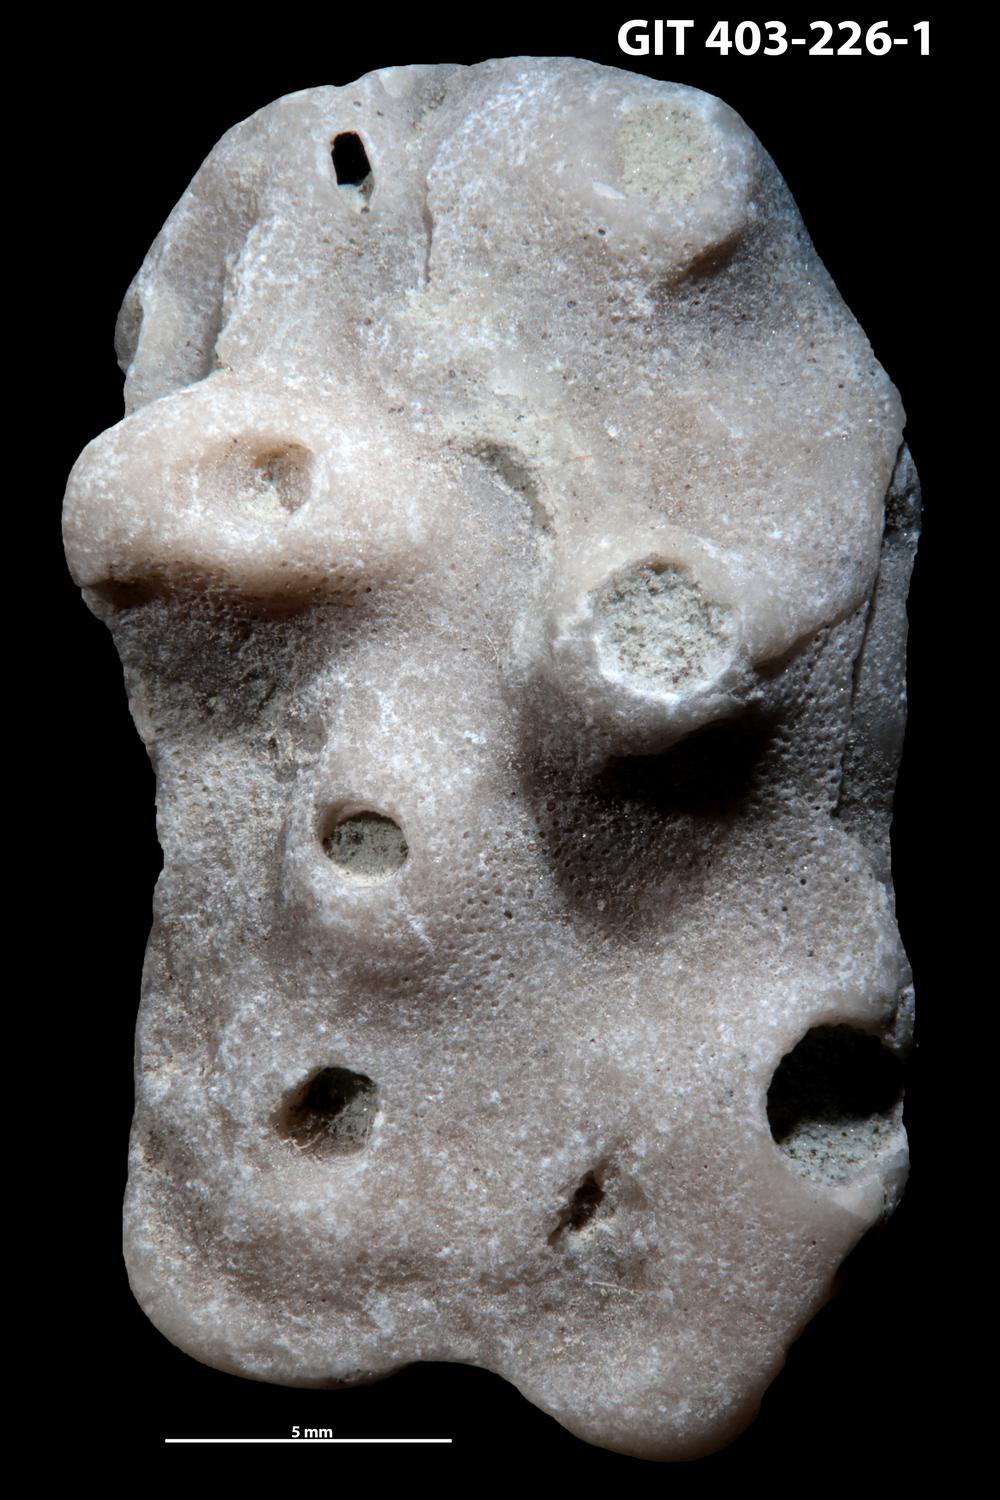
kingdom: Animalia
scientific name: Animalia
